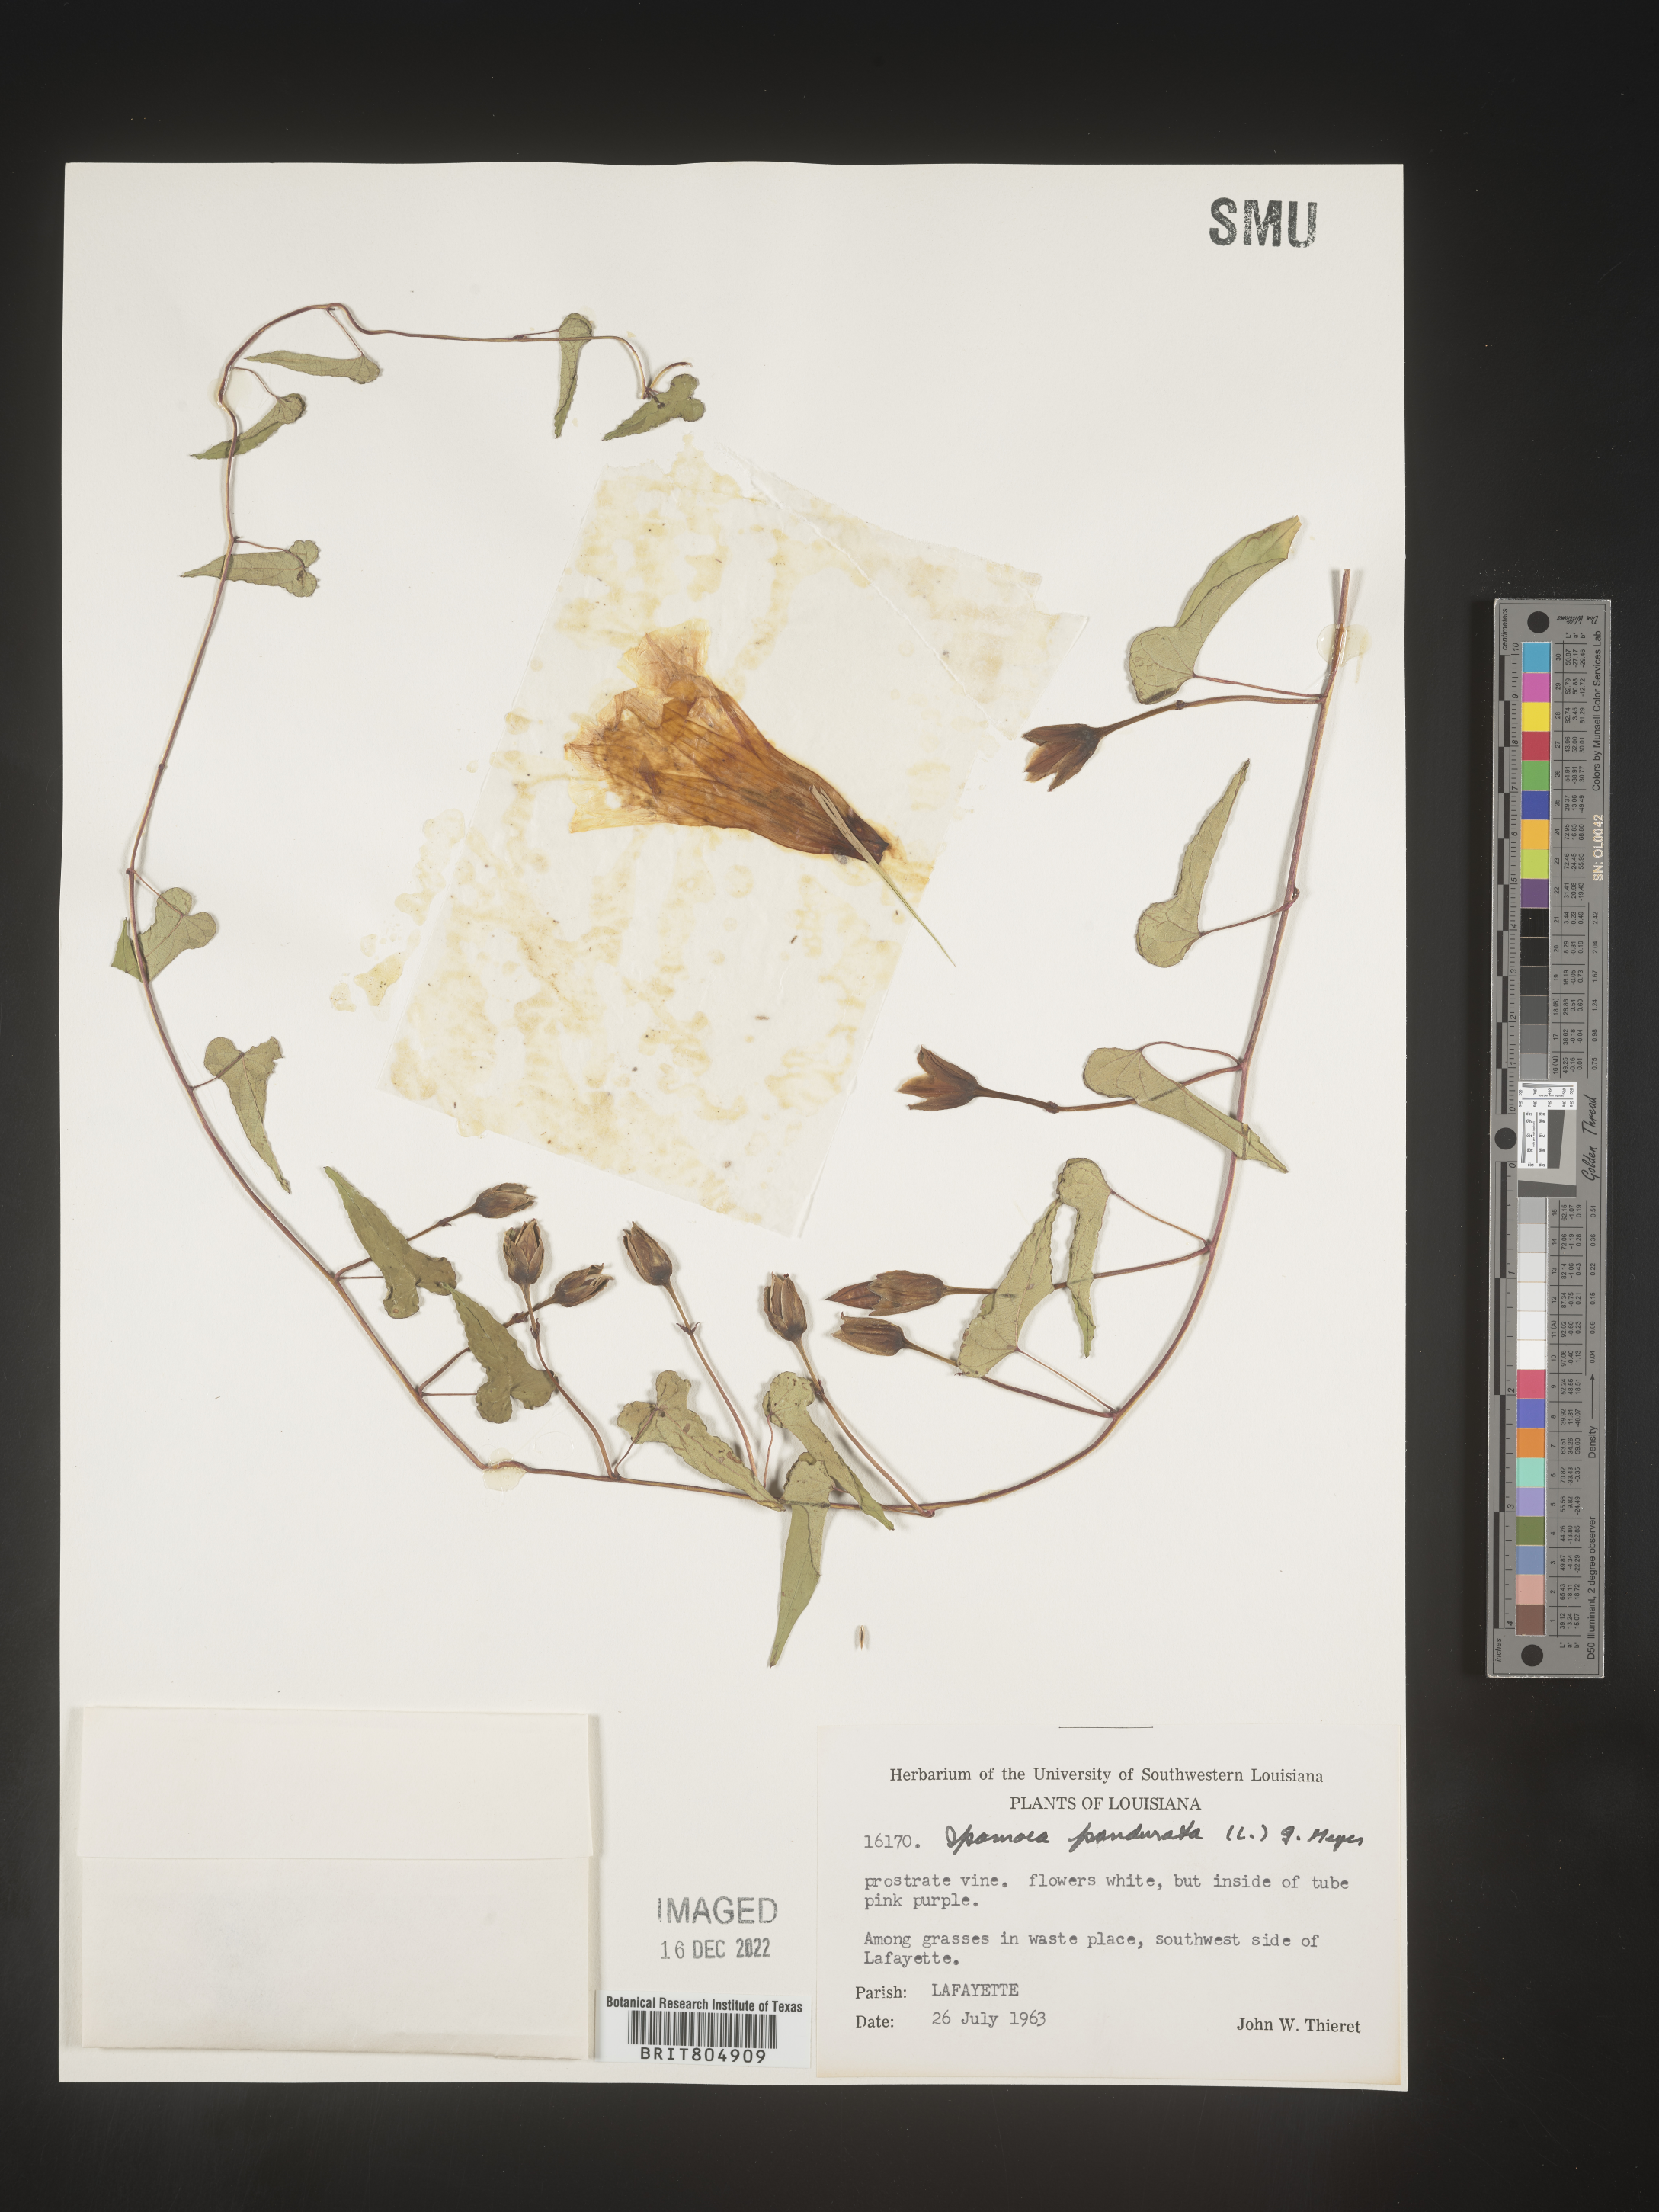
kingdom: Plantae
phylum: Tracheophyta
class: Magnoliopsida
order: Solanales
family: Convolvulaceae
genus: Ipomoea
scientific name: Ipomoea pandurata
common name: Man-of-the-earth
